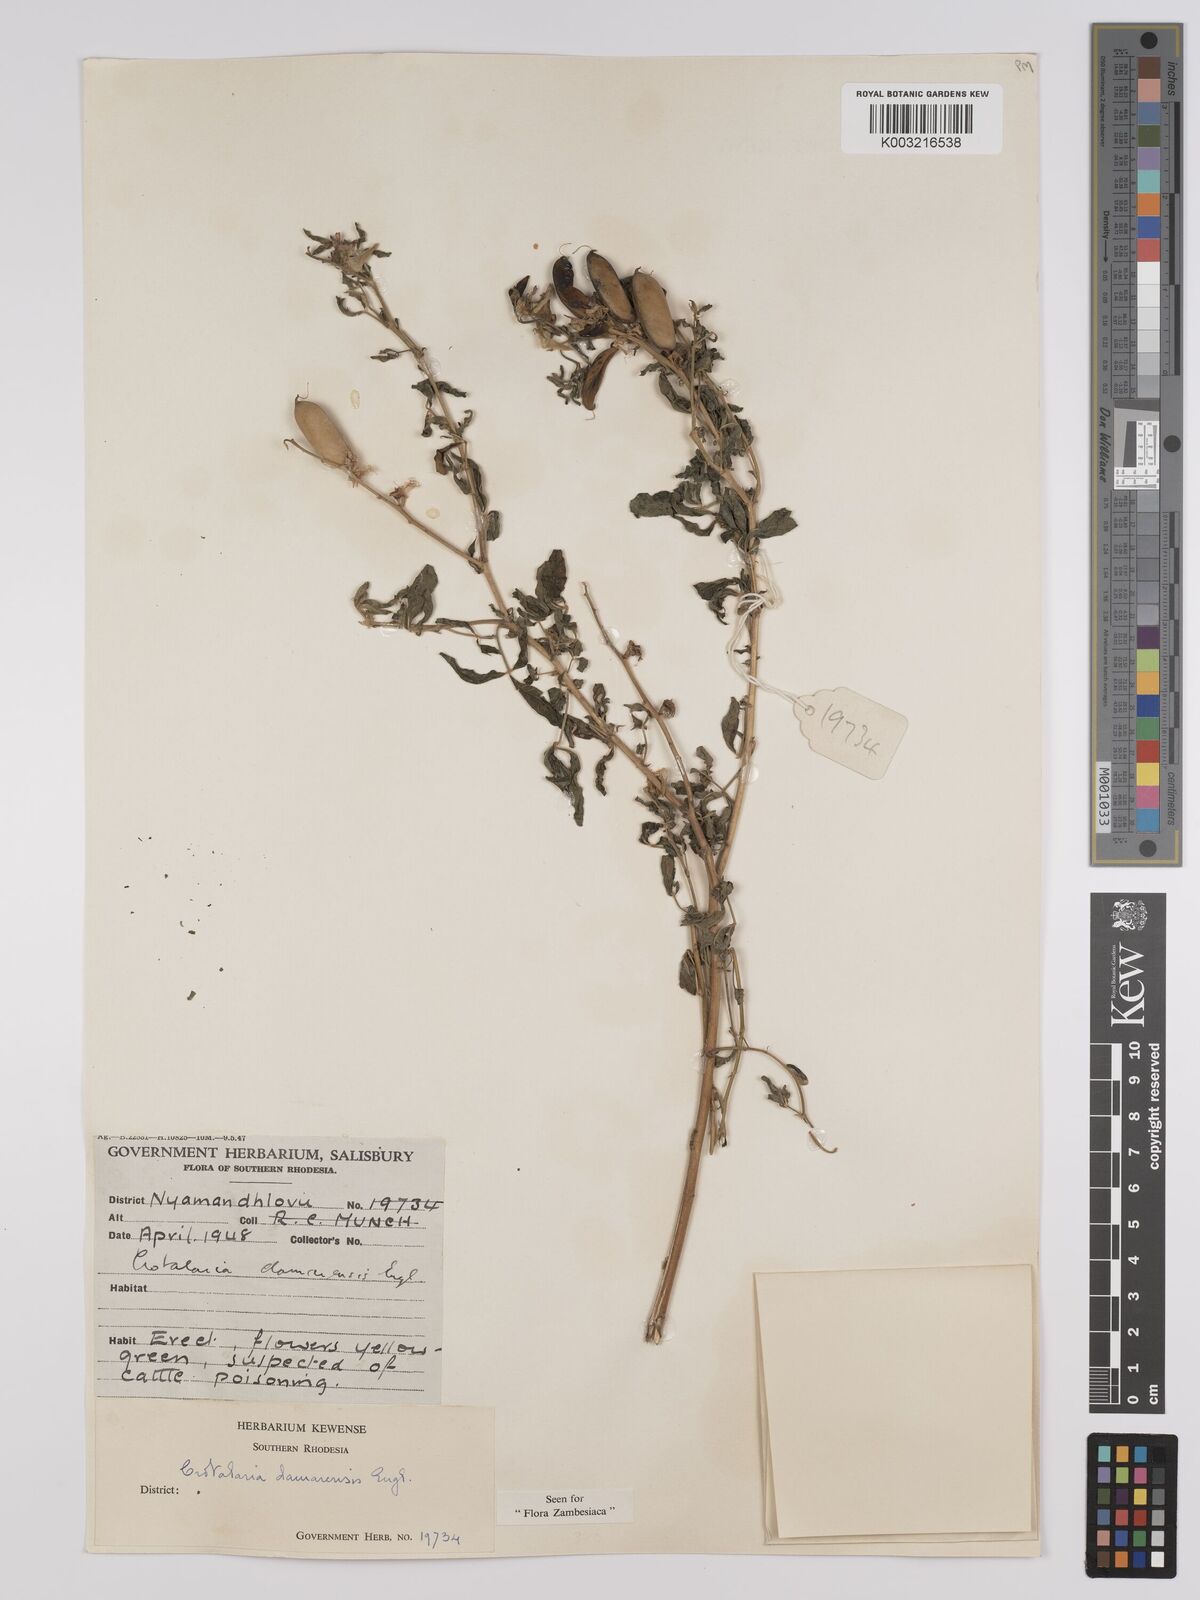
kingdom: Plantae
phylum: Tracheophyta
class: Magnoliopsida
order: Fabales
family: Fabaceae
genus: Crotalaria
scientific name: Crotalaria damarensis
